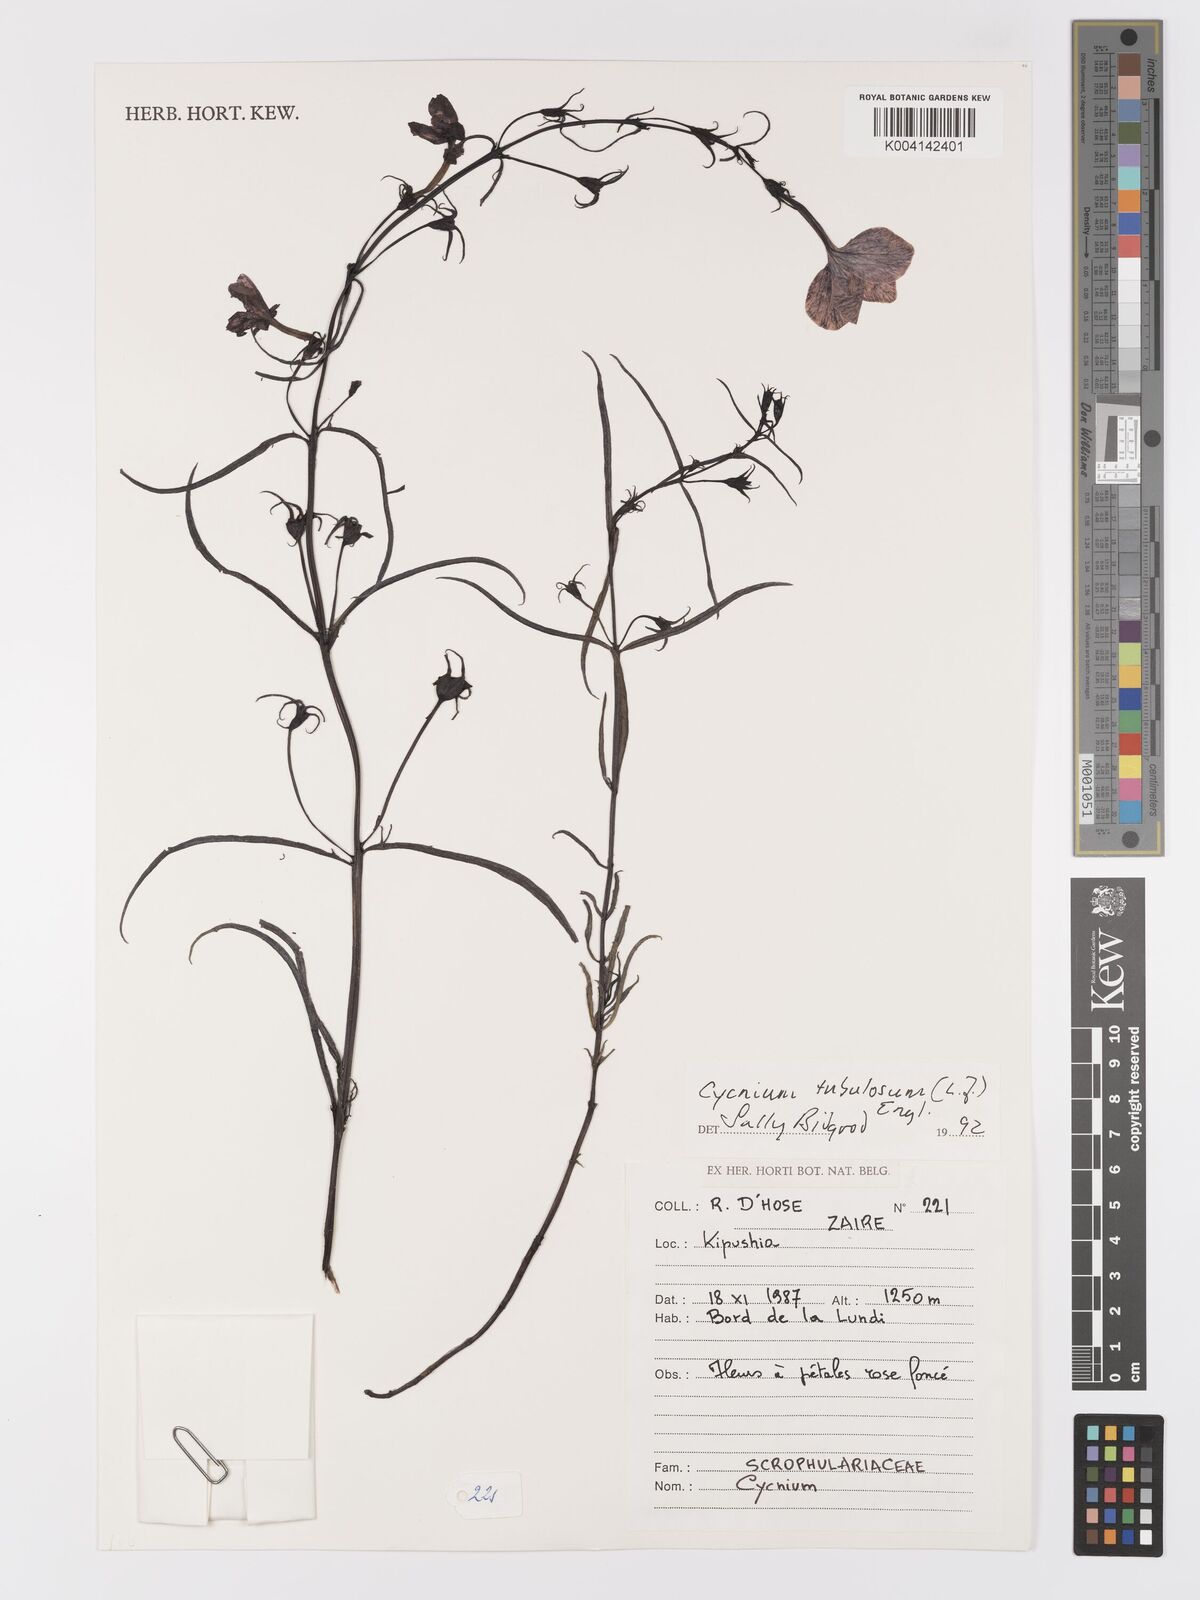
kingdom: Plantae
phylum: Tracheophyta
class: Magnoliopsida
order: Lamiales
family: Orobanchaceae
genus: Cycnium
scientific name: Cycnium tubulosum
